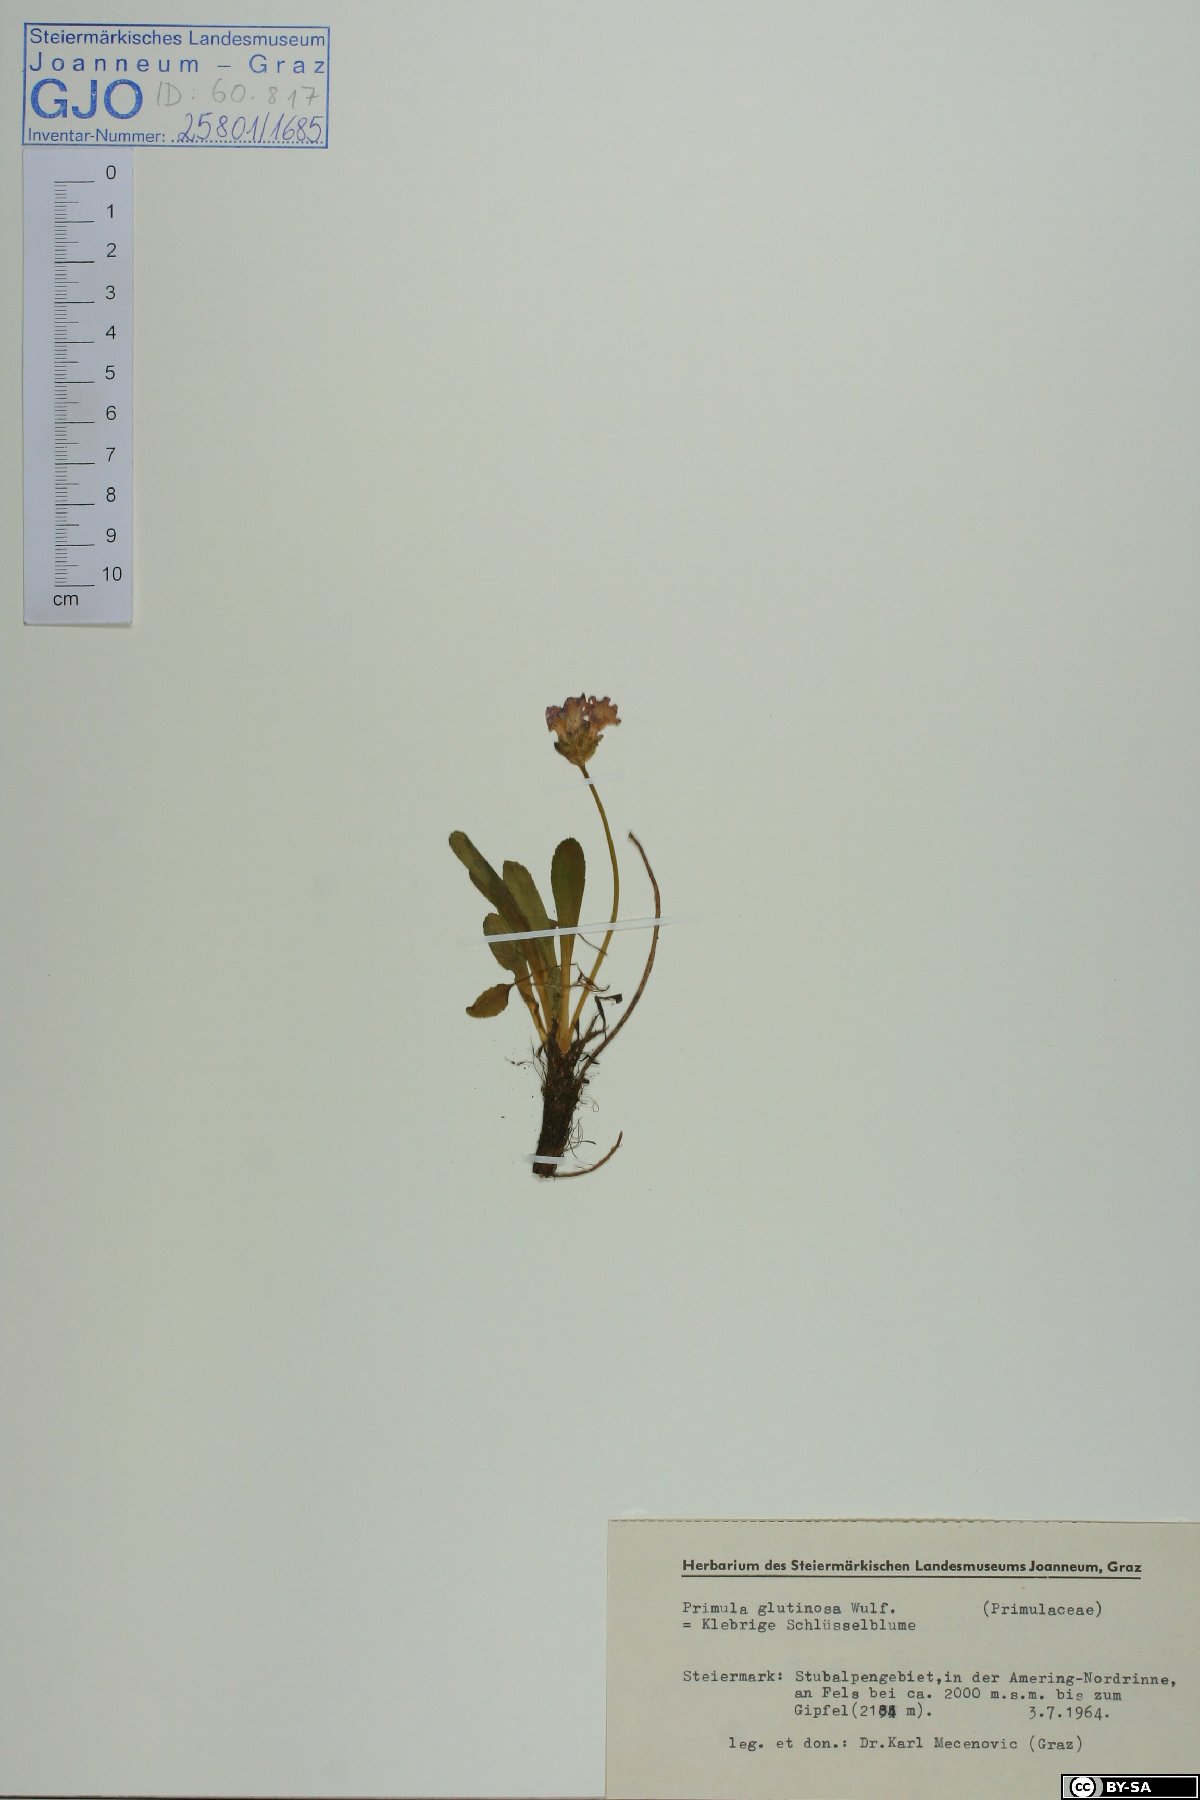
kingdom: Plantae
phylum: Tracheophyta
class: Magnoliopsida
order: Ericales
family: Primulaceae
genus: Primula
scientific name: Primula glutinosa
